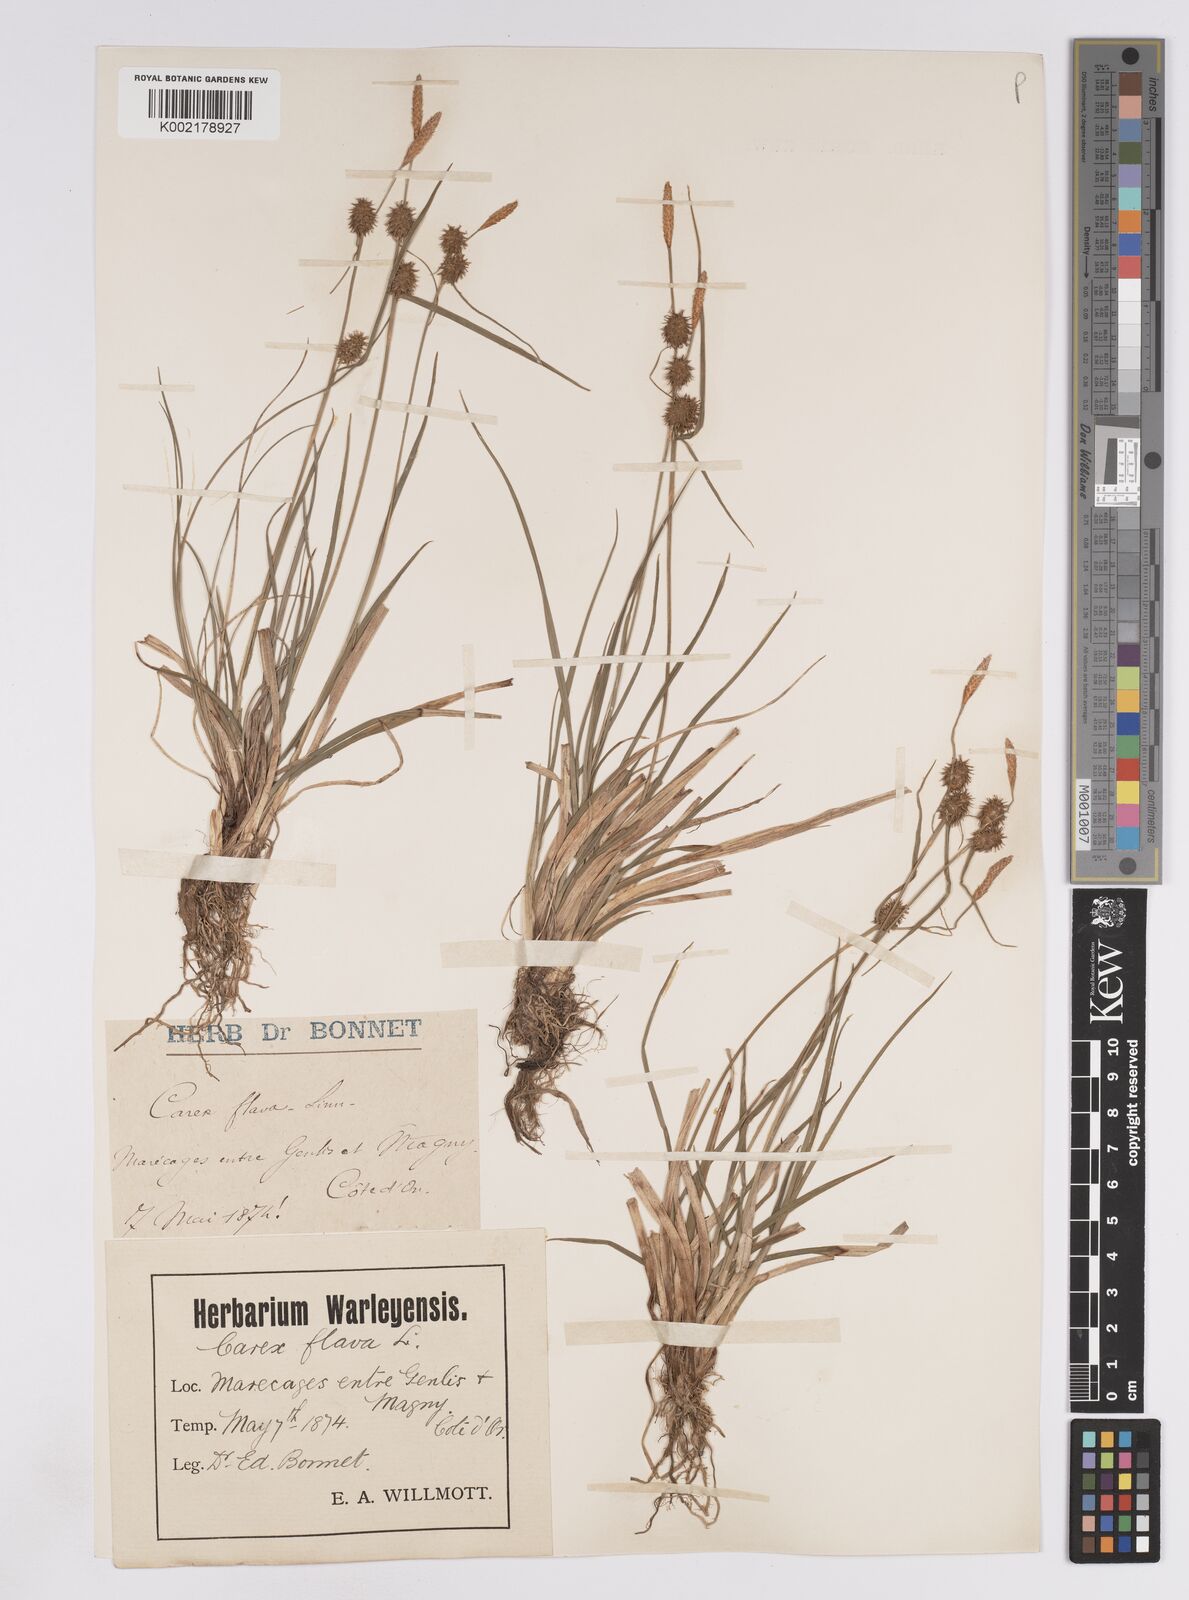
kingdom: Plantae
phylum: Tracheophyta
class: Liliopsida
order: Poales
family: Cyperaceae
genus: Carex
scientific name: Carex lepidocarpa
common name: Long-stalked yellow-sedge
